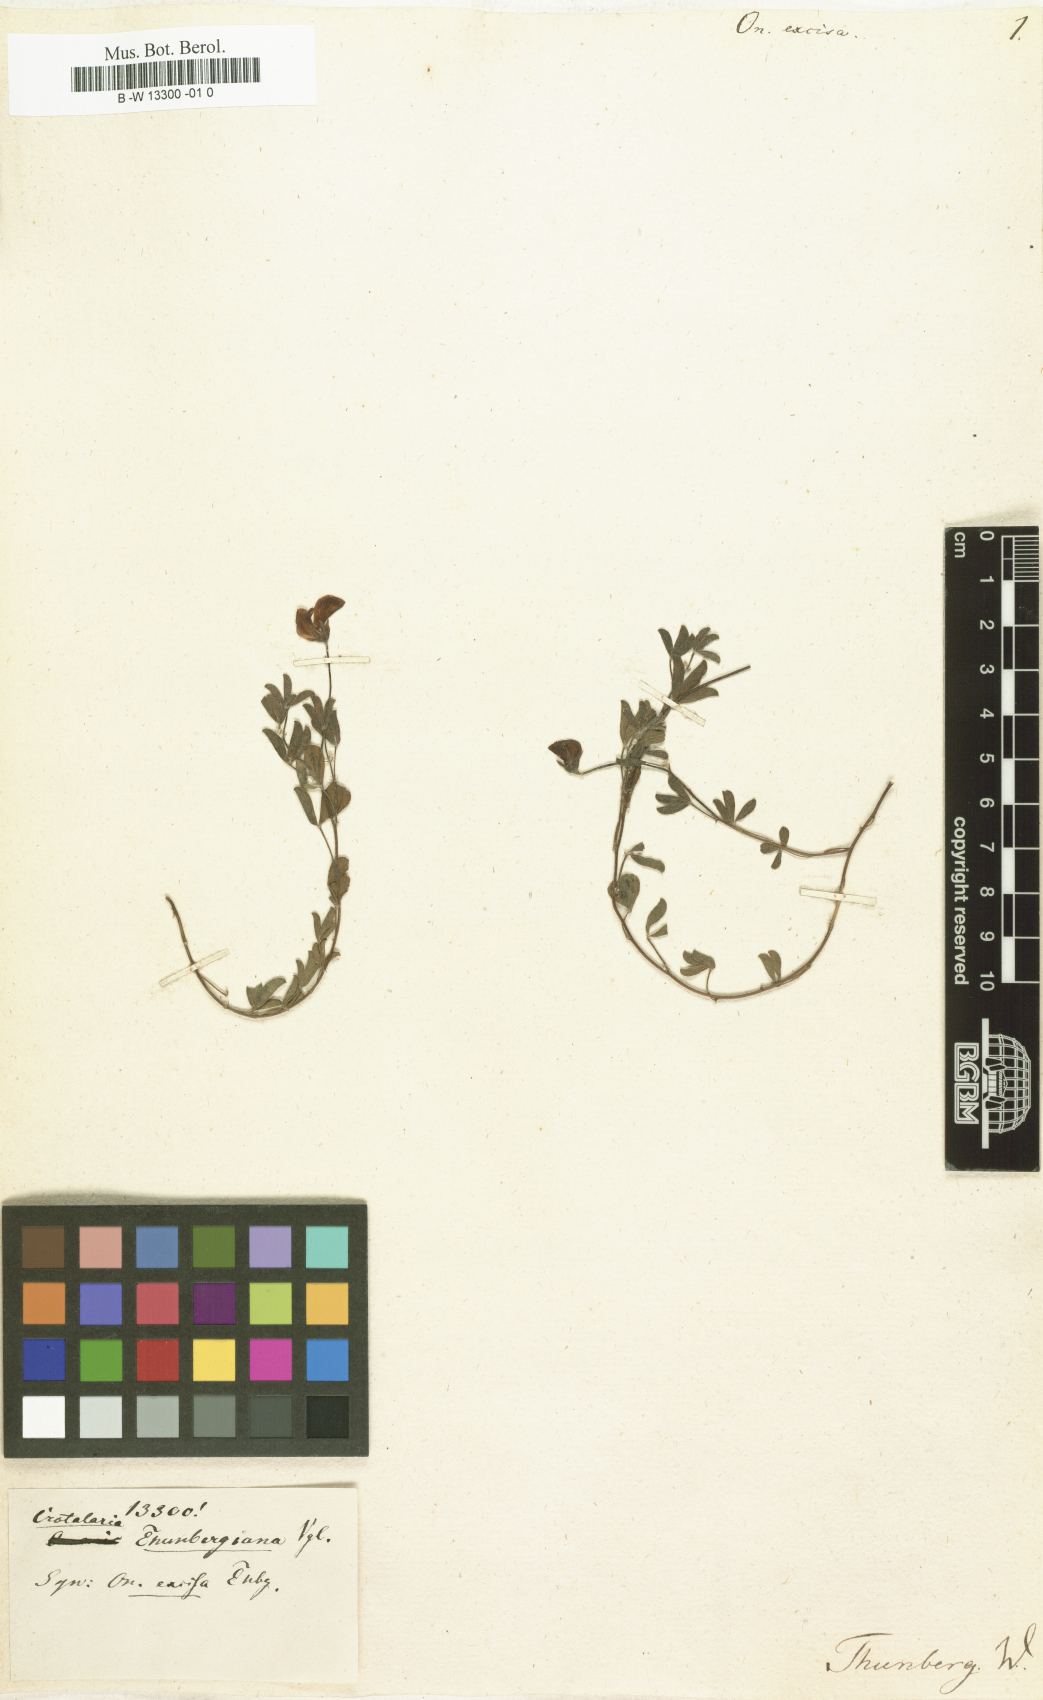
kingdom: Plantae
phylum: Tracheophyta
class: Magnoliopsida
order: Fabales
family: Fabaceae
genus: Crotalaria
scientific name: Crotalaria excisa
